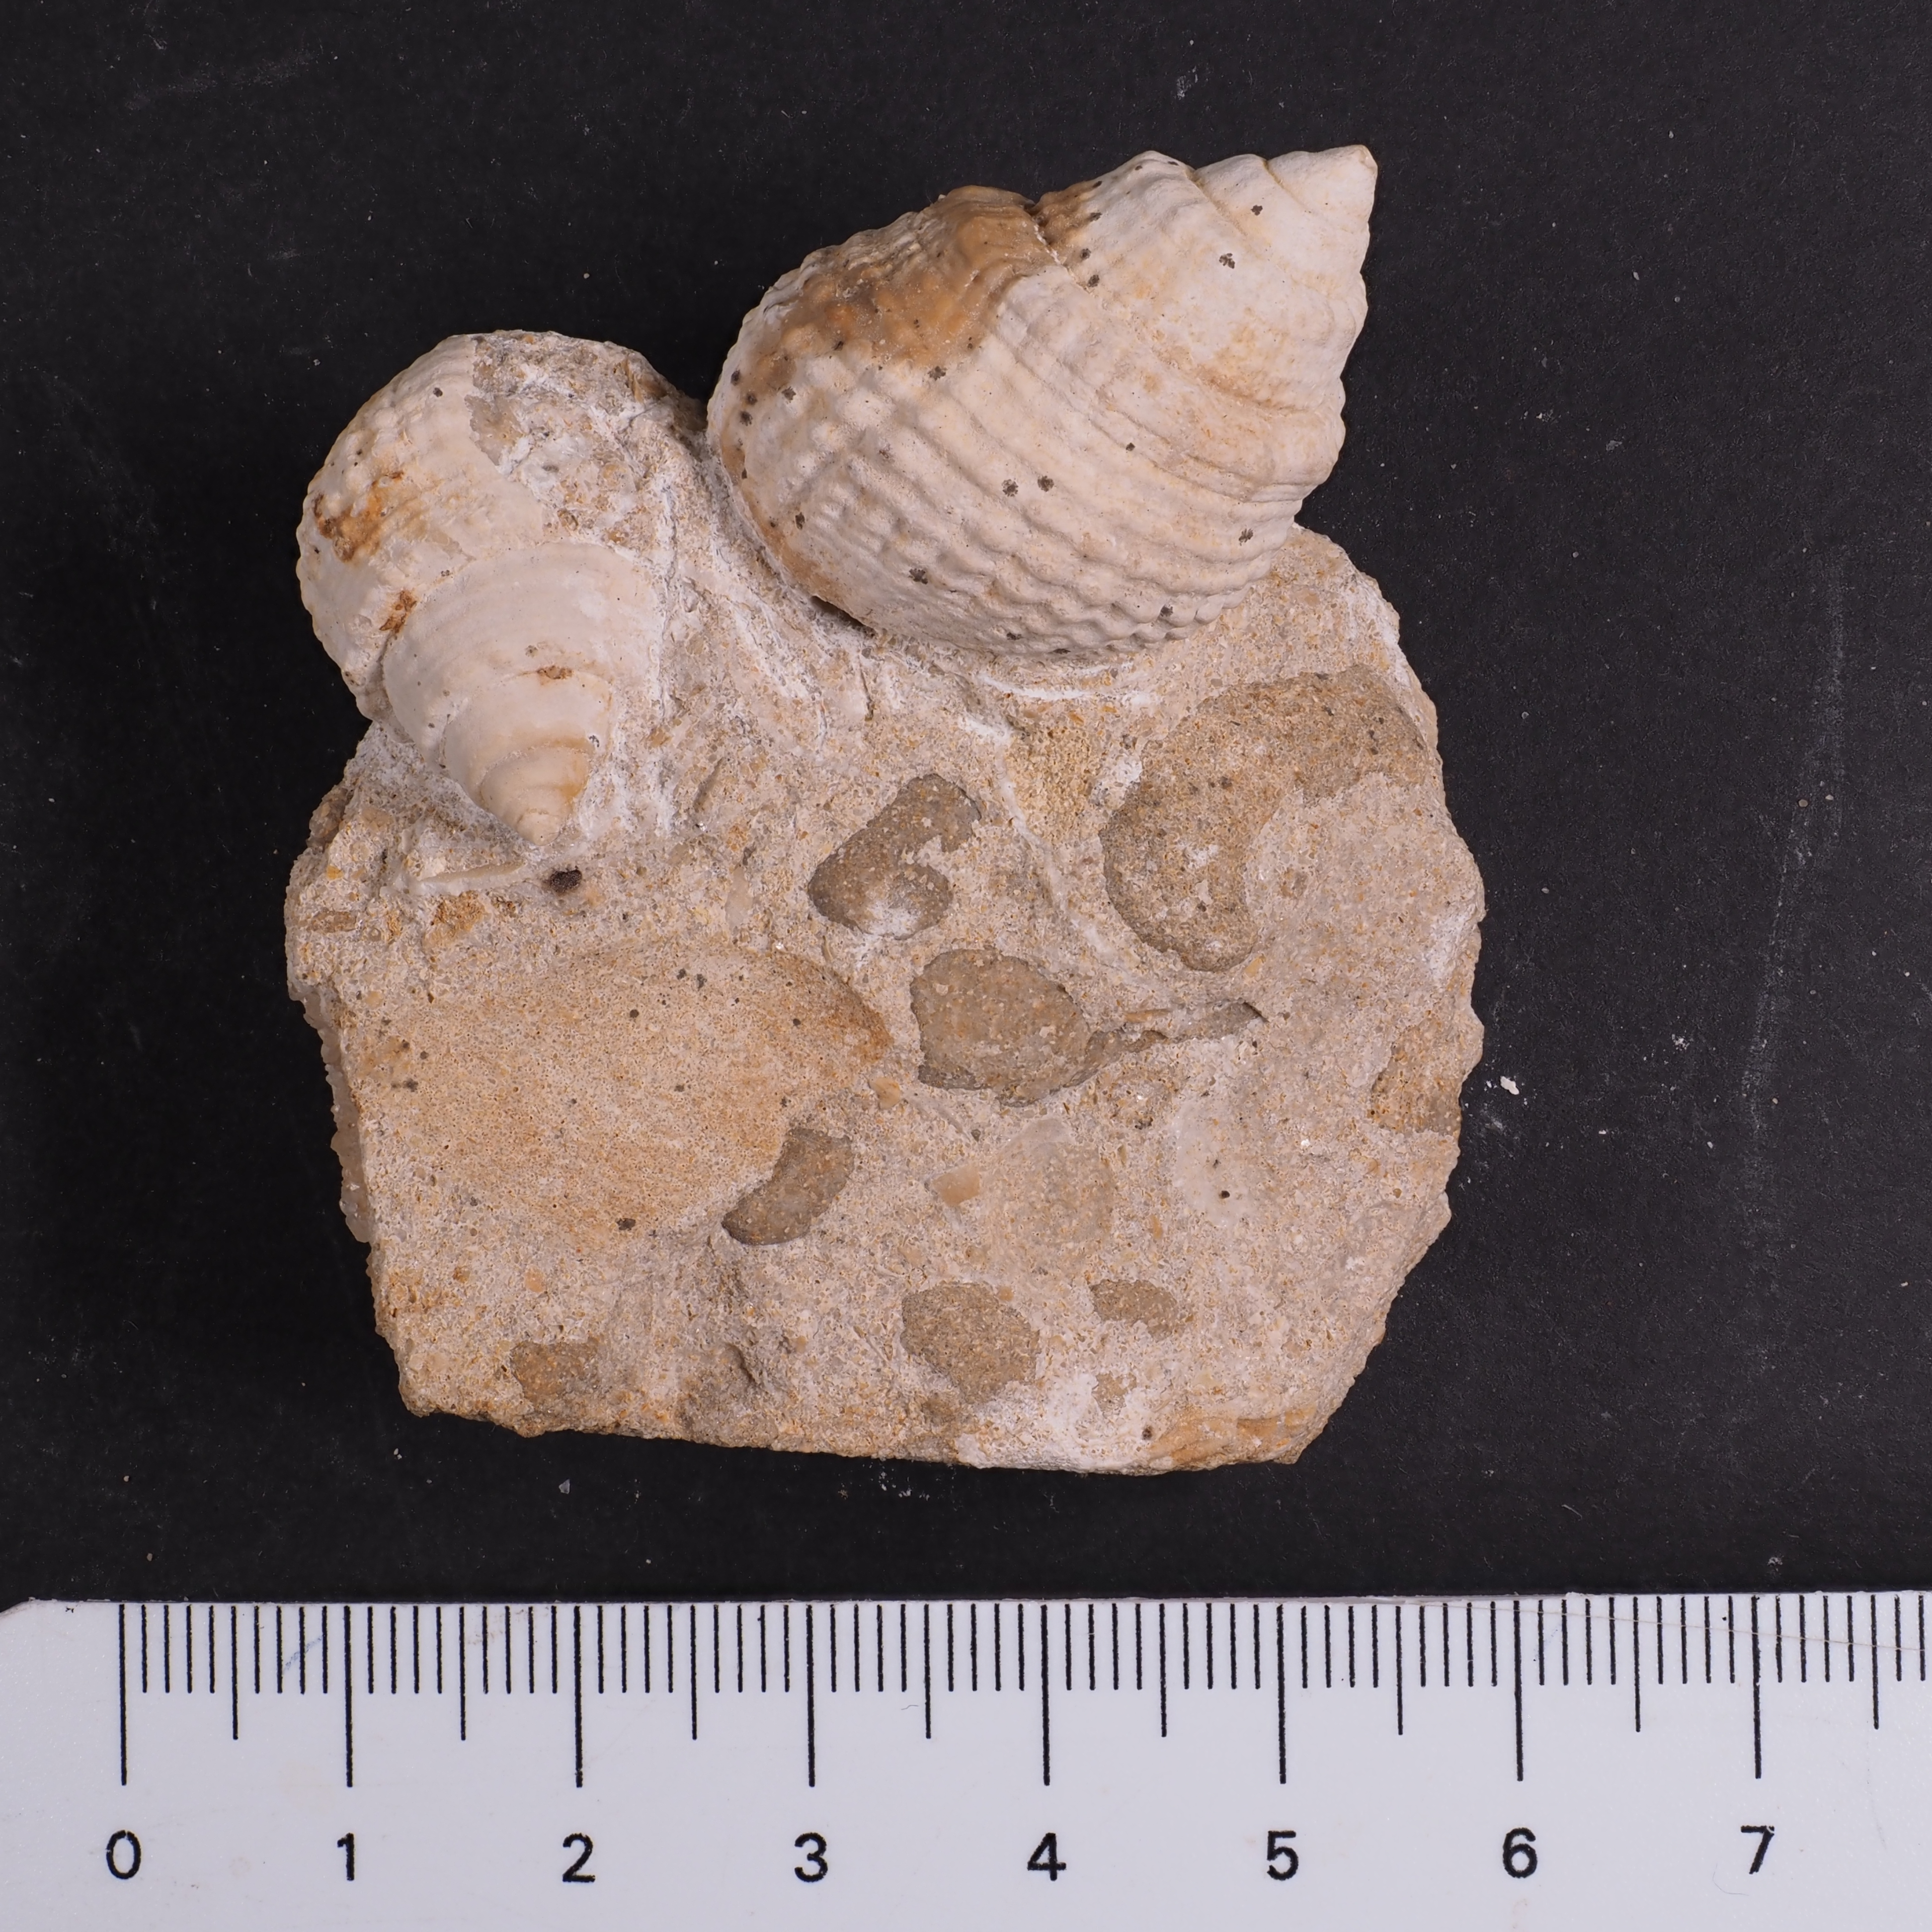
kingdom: Animalia
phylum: Mollusca
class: Gastropoda
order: Neogastropoda
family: Purpurinidae
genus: Microschiza
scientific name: Microschiza Turbo semiornatus
